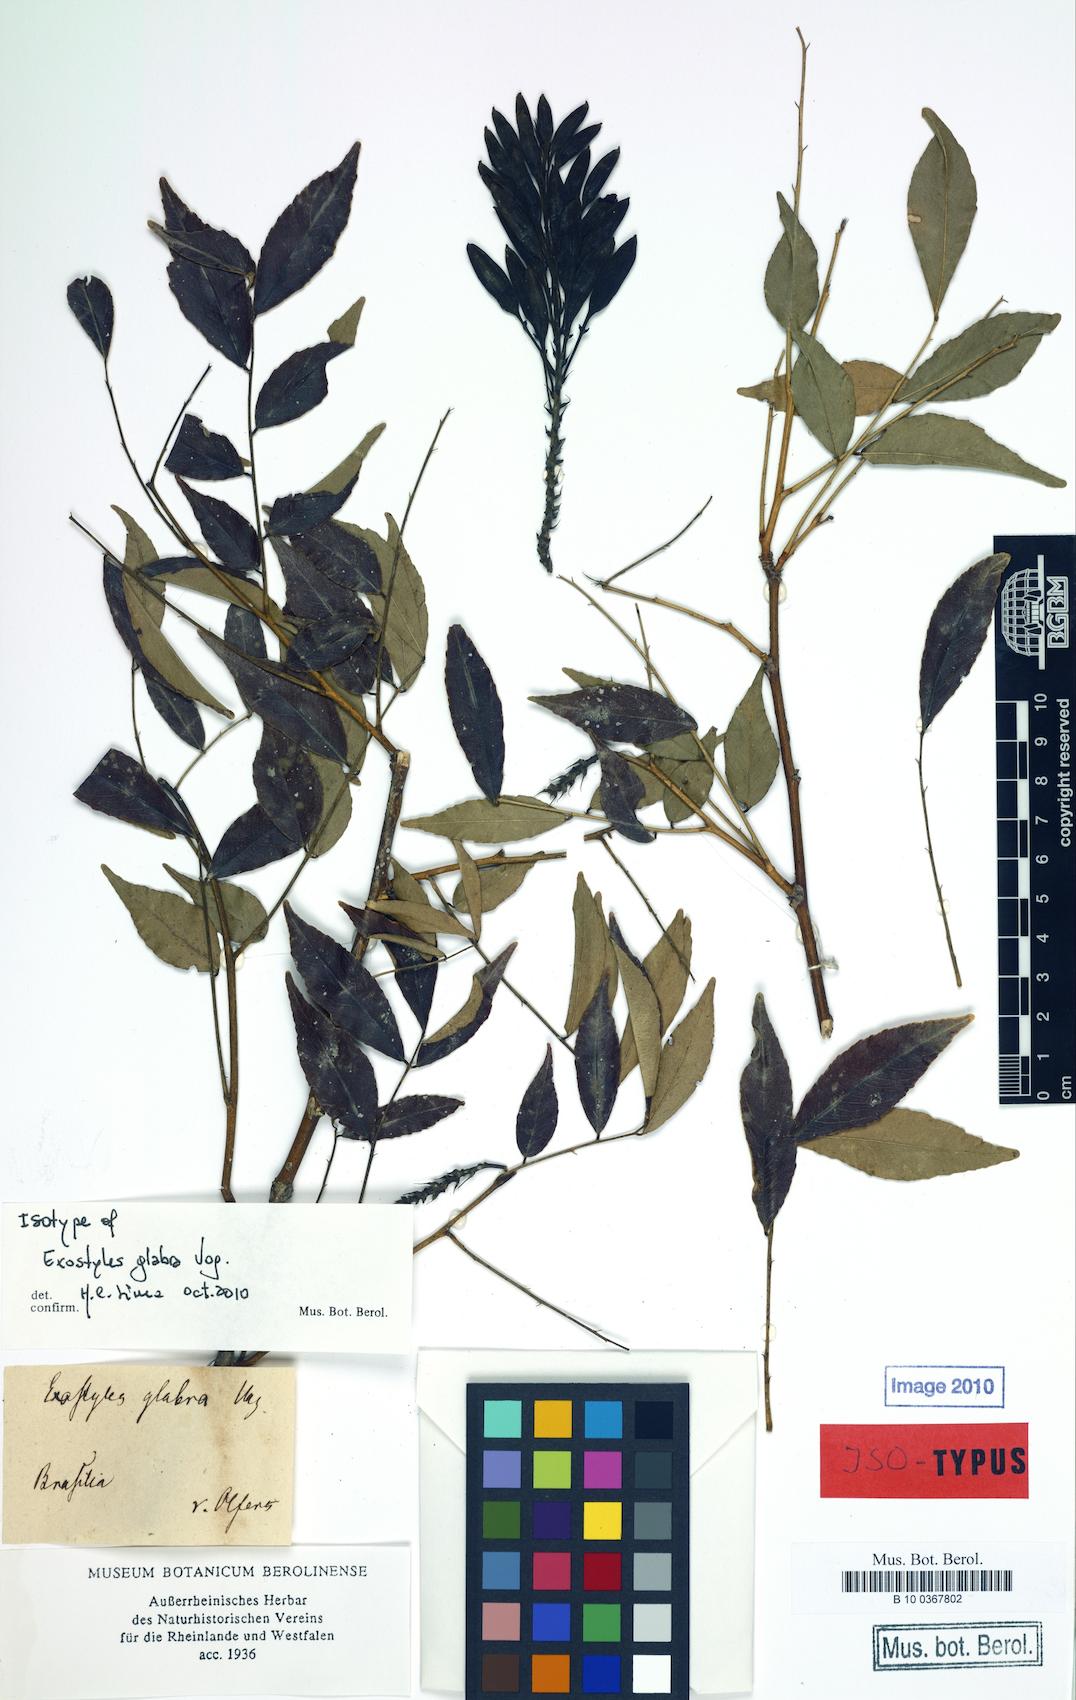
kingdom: Plantae
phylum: Tracheophyta
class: Magnoliopsida
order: Fabales
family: Fabaceae
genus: Exostyles
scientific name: Exostyles glabra
